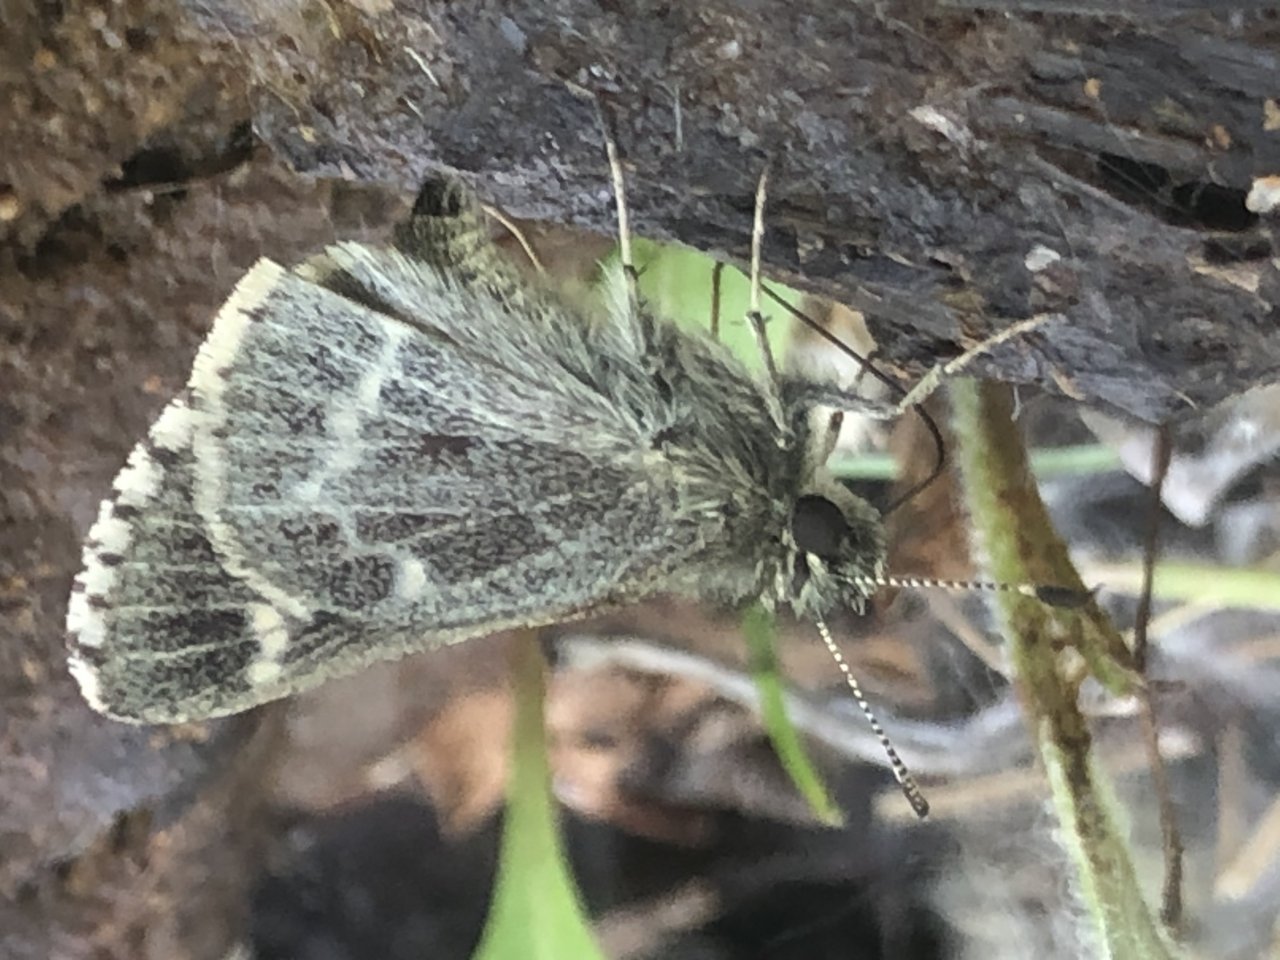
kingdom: Animalia
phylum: Arthropoda
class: Insecta
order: Lepidoptera
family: Hesperiidae
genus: Mastor
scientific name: Mastor hegon
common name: Pepper and Salt Skipper
